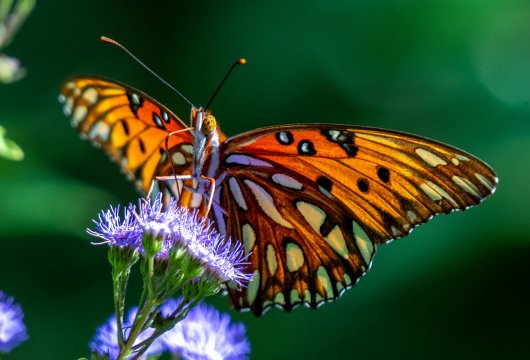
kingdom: Animalia
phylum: Arthropoda
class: Insecta
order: Lepidoptera
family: Nymphalidae
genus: Dione
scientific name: Dione vanillae
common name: Gulf Fritillary
